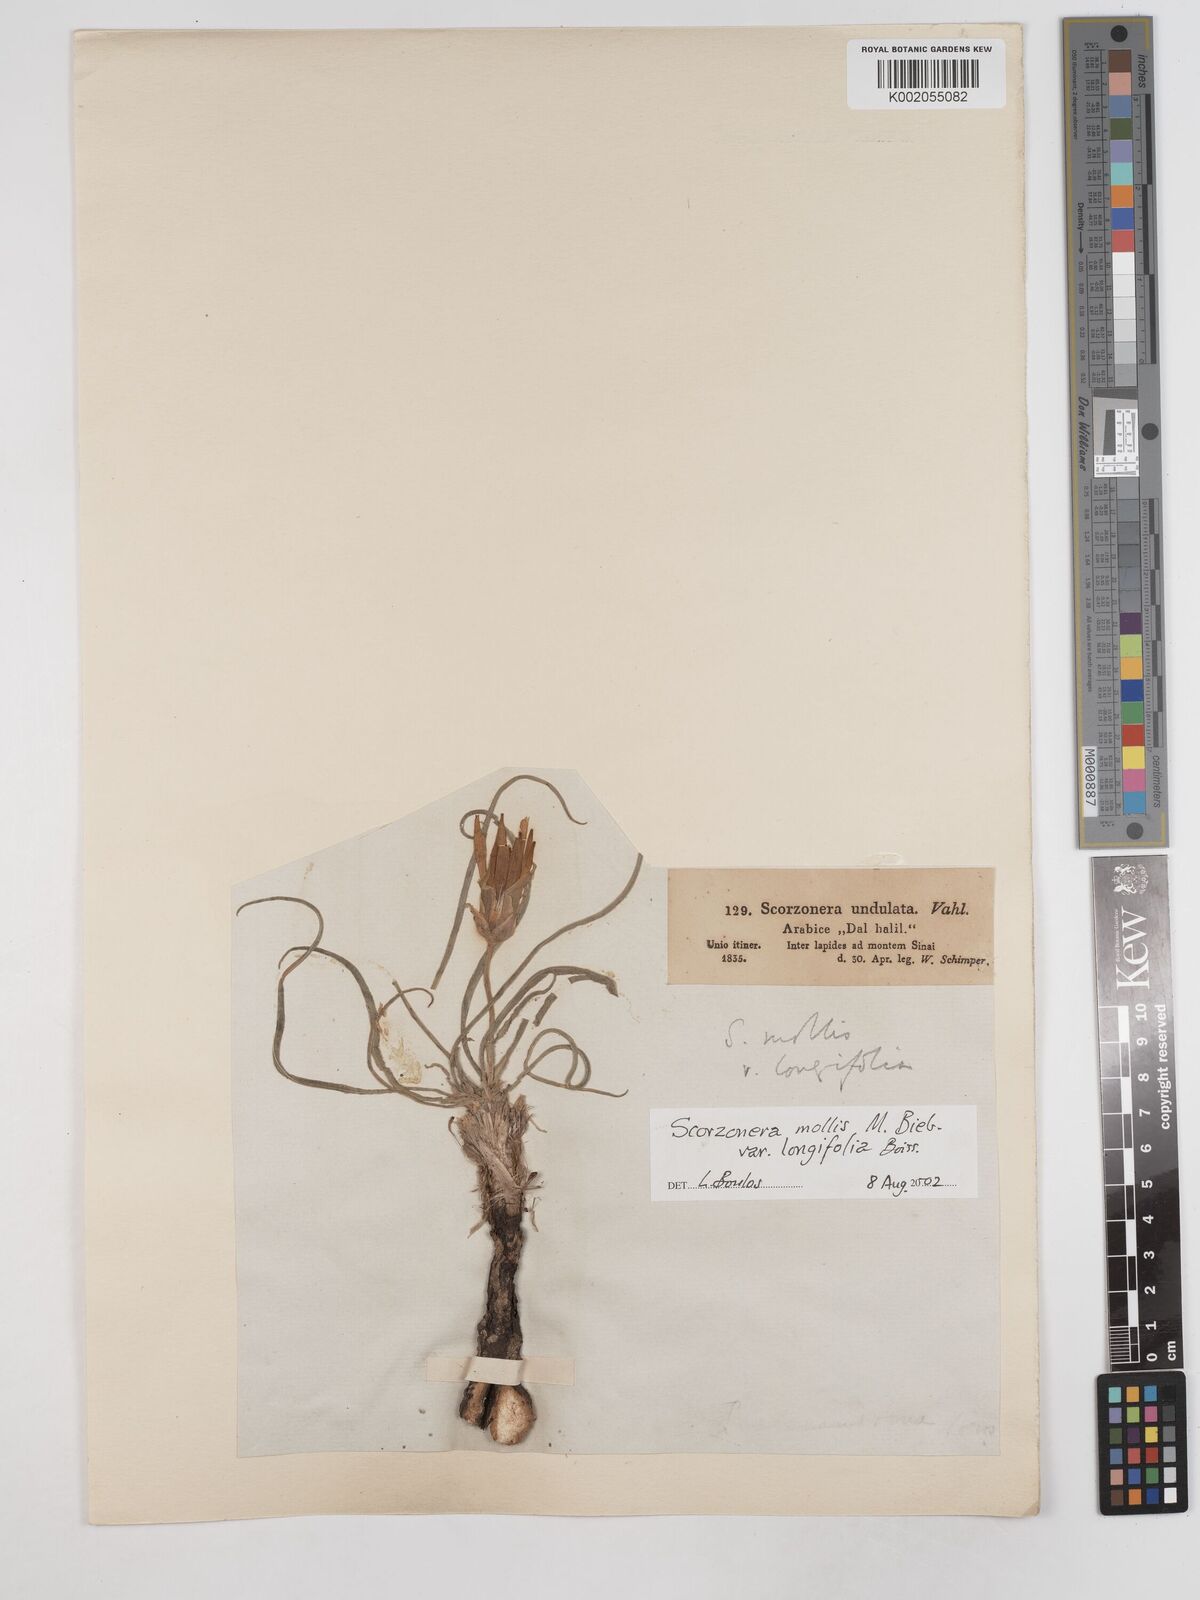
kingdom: Plantae
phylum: Tracheophyta
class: Magnoliopsida
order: Asterales
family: Asteraceae
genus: Candollea
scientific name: Candollea mollis
